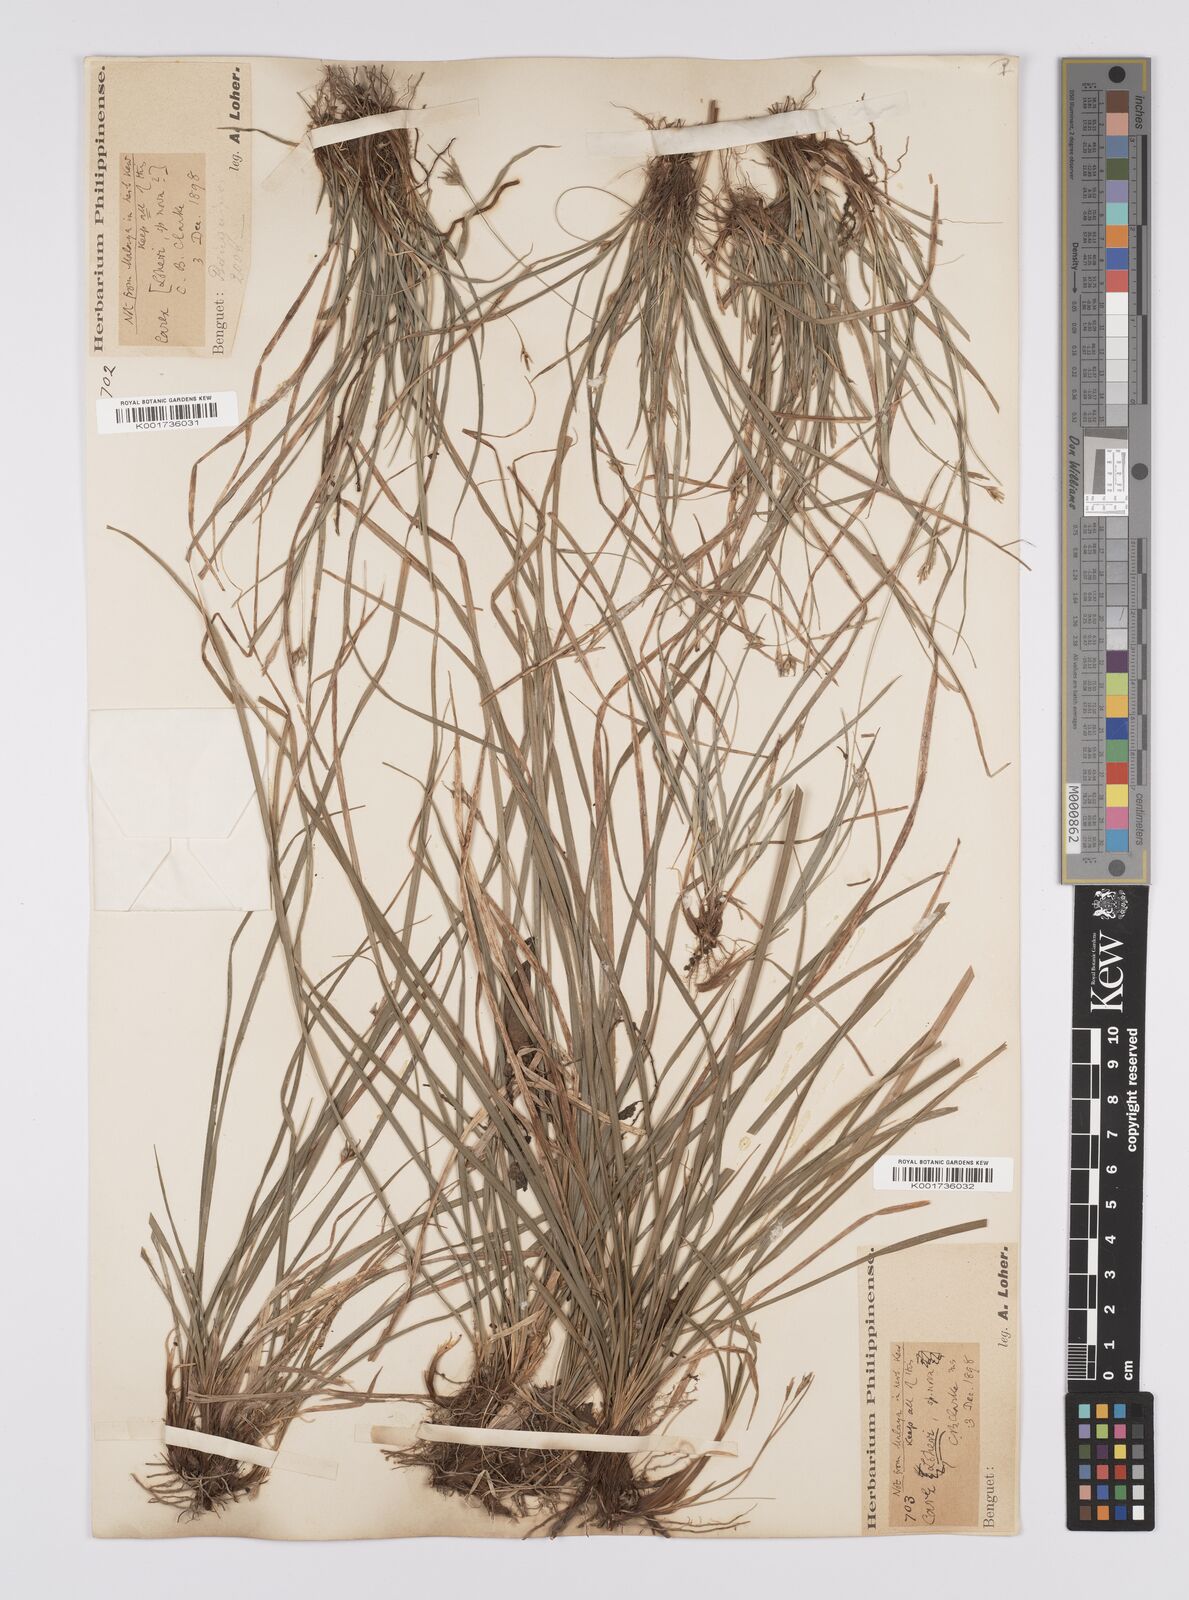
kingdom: Plantae
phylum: Tracheophyta
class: Liliopsida
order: Poales
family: Cyperaceae
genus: Carex
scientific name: Carex oxyphylla
